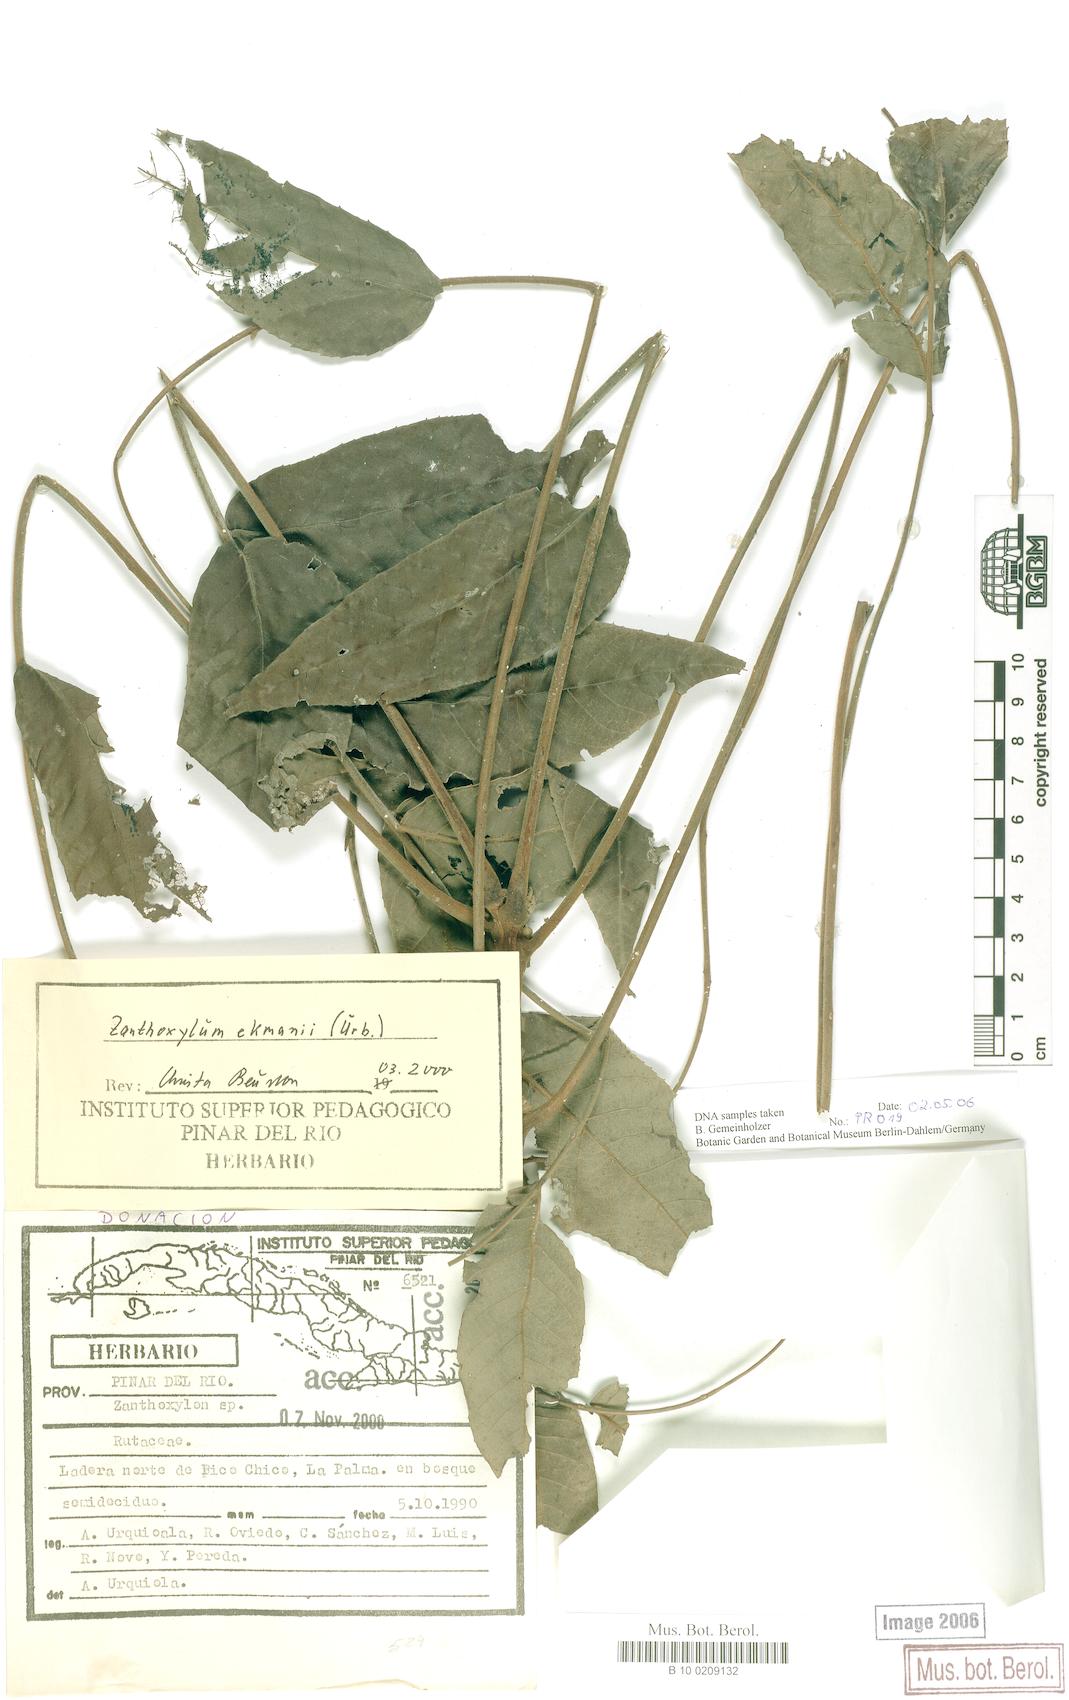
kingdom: Plantae
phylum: Tracheophyta
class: Magnoliopsida
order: Sapindales
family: Rutaceae
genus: Zanthoxylum
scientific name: Zanthoxylum ekmanii
